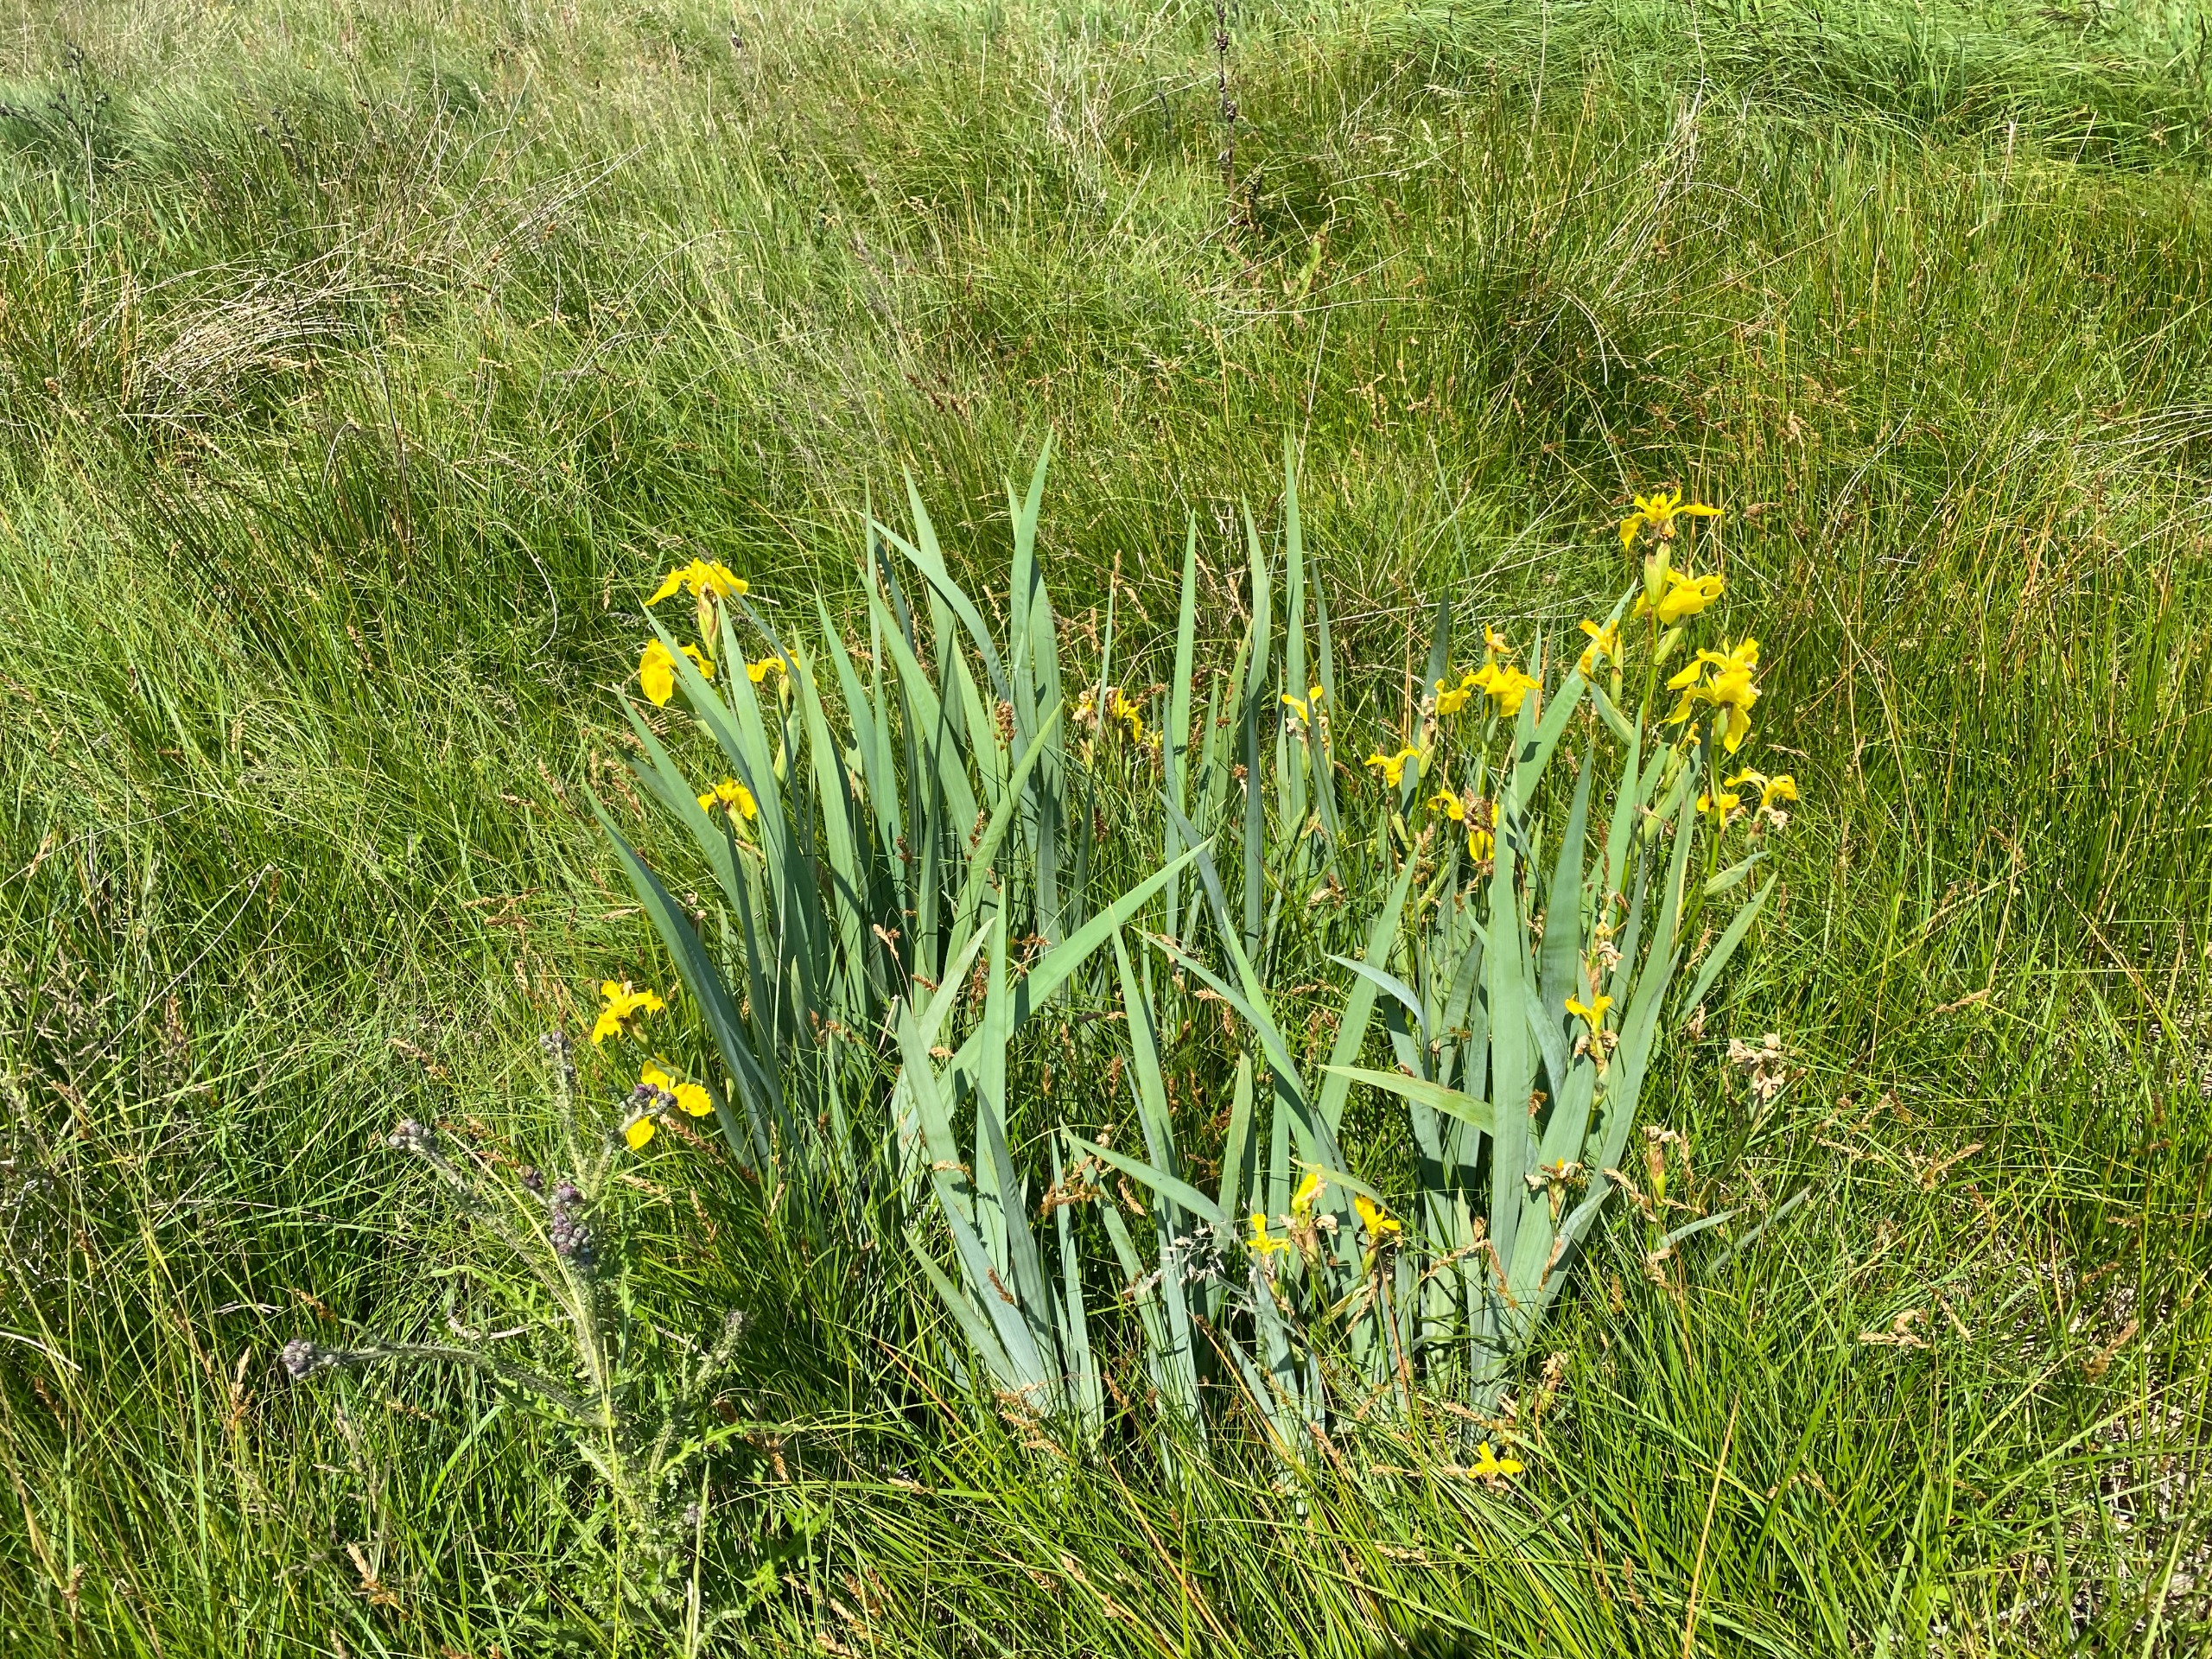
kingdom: Plantae
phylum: Tracheophyta
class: Liliopsida
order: Asparagales
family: Iridaceae
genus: Iris
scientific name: Iris pseudacorus
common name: Gul iris
